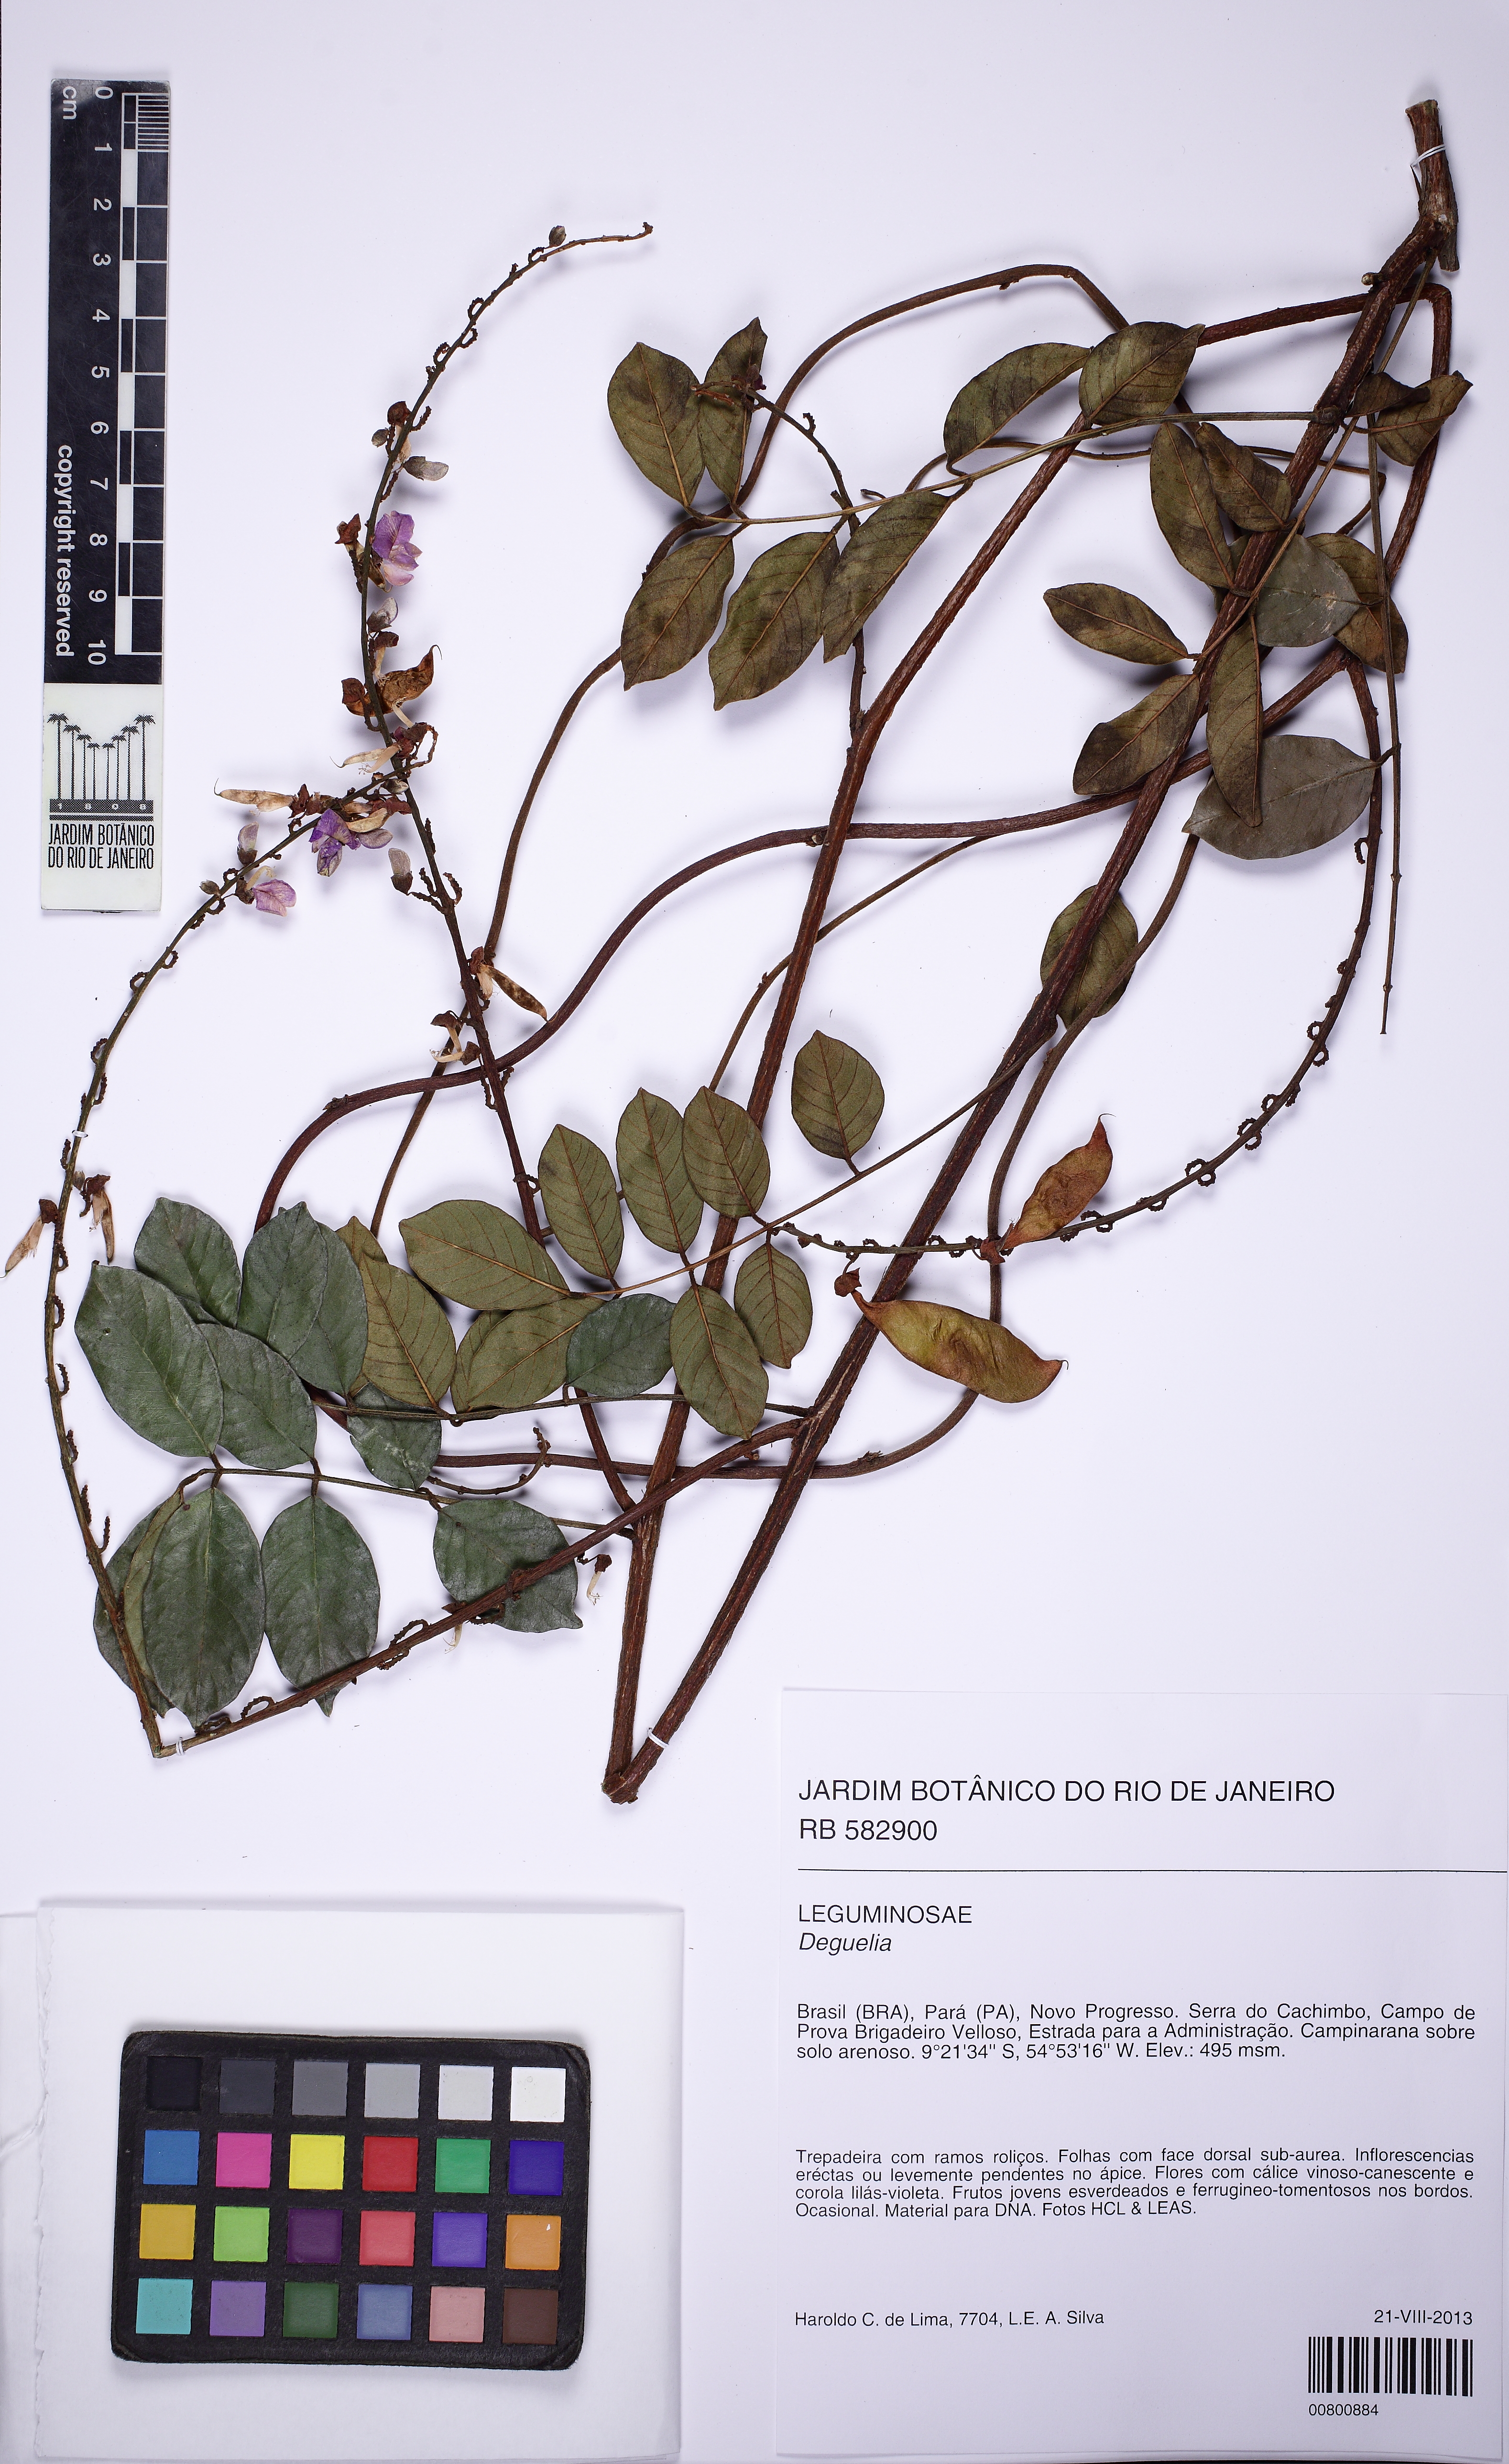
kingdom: Plantae
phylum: Tracheophyta
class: Magnoliopsida
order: Fabales
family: Fabaceae
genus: Deguelia
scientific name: Deguelia nitidula
